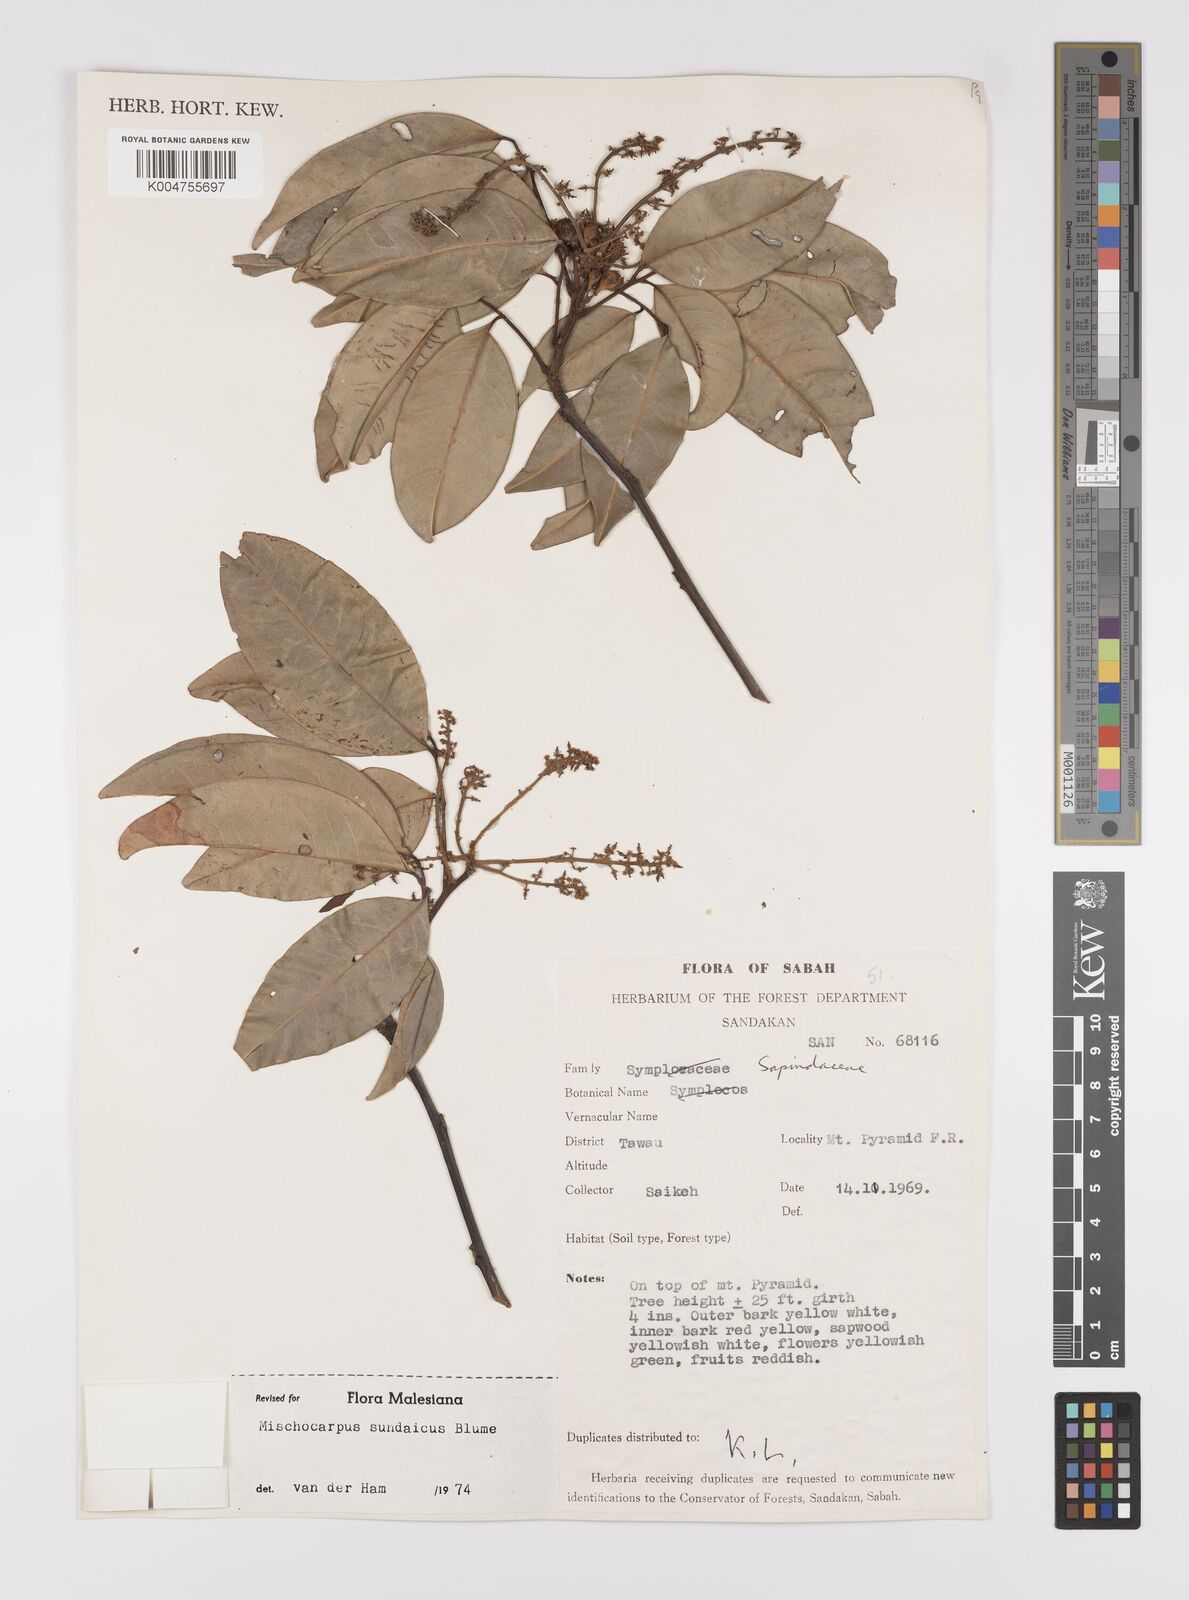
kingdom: Plantae
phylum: Tracheophyta
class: Magnoliopsida
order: Sapindales
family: Sapindaceae
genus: Mischocarpus
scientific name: Mischocarpus sundaicus
